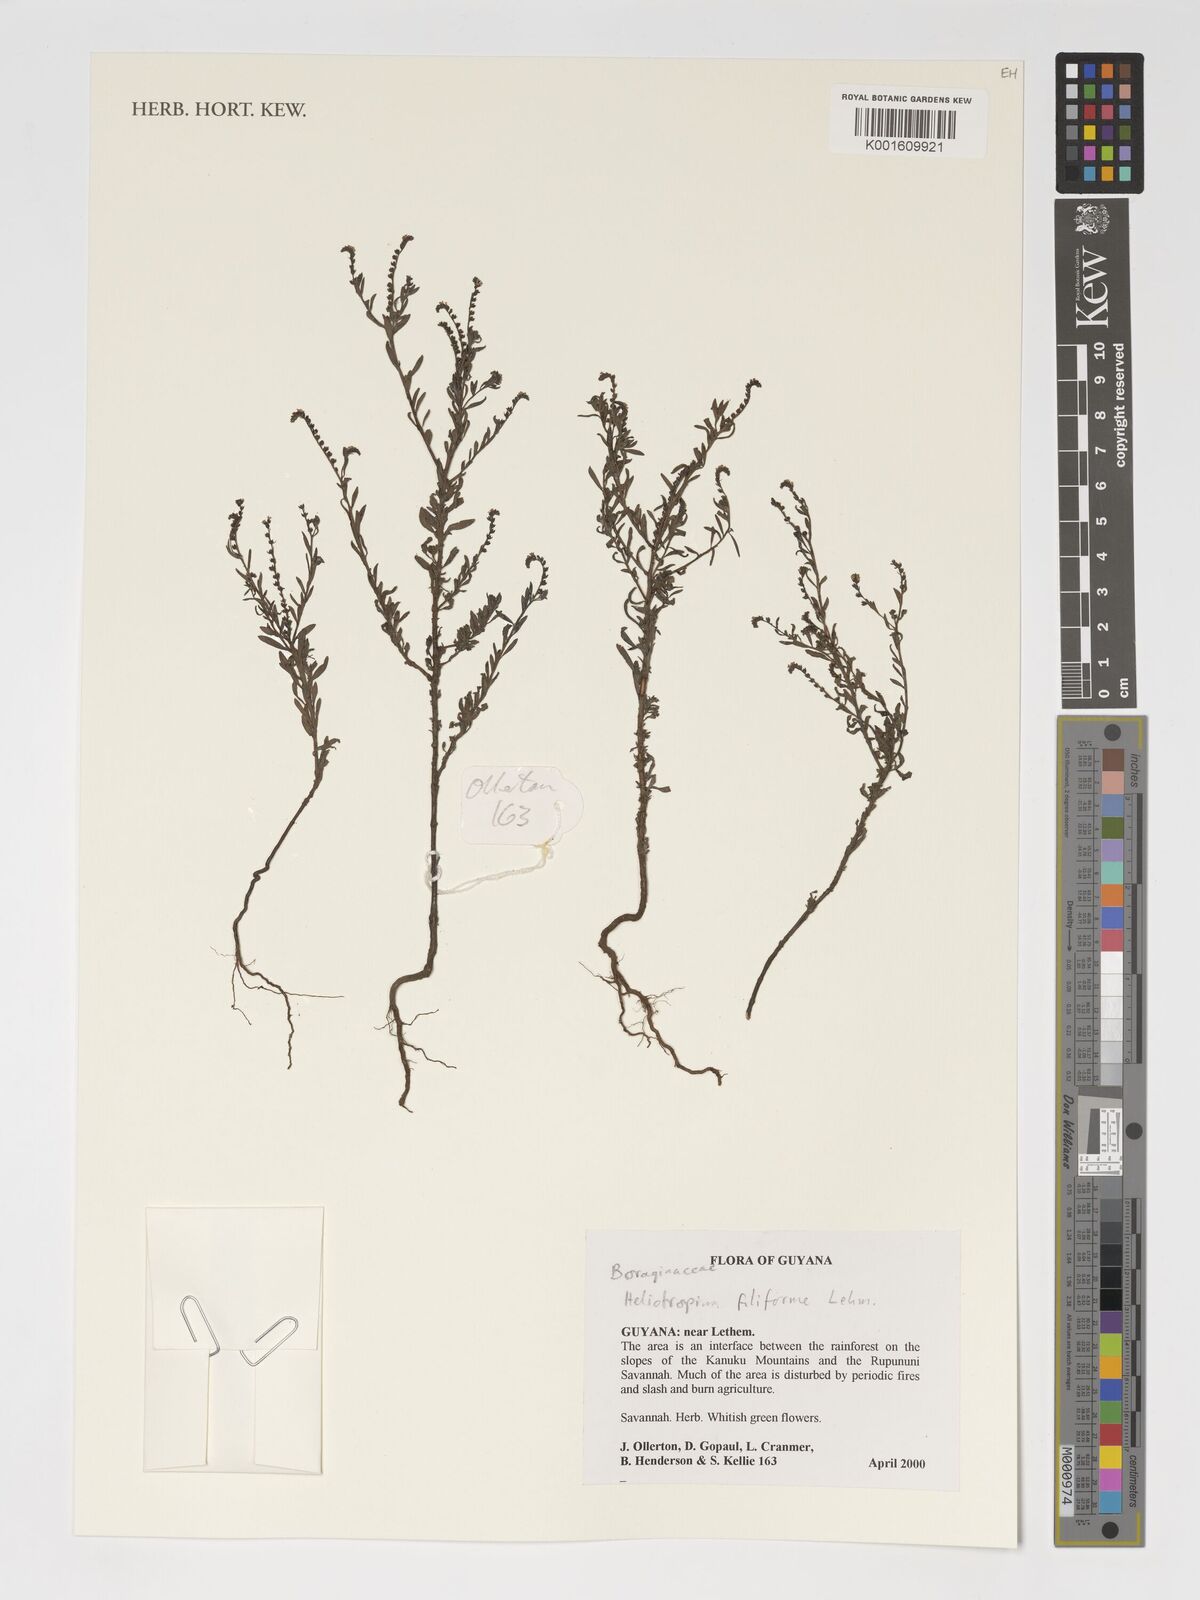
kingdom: Plantae
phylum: Tracheophyta
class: Magnoliopsida
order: Boraginales
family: Heliotropiaceae
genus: Euploca
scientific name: Euploca filiformis
